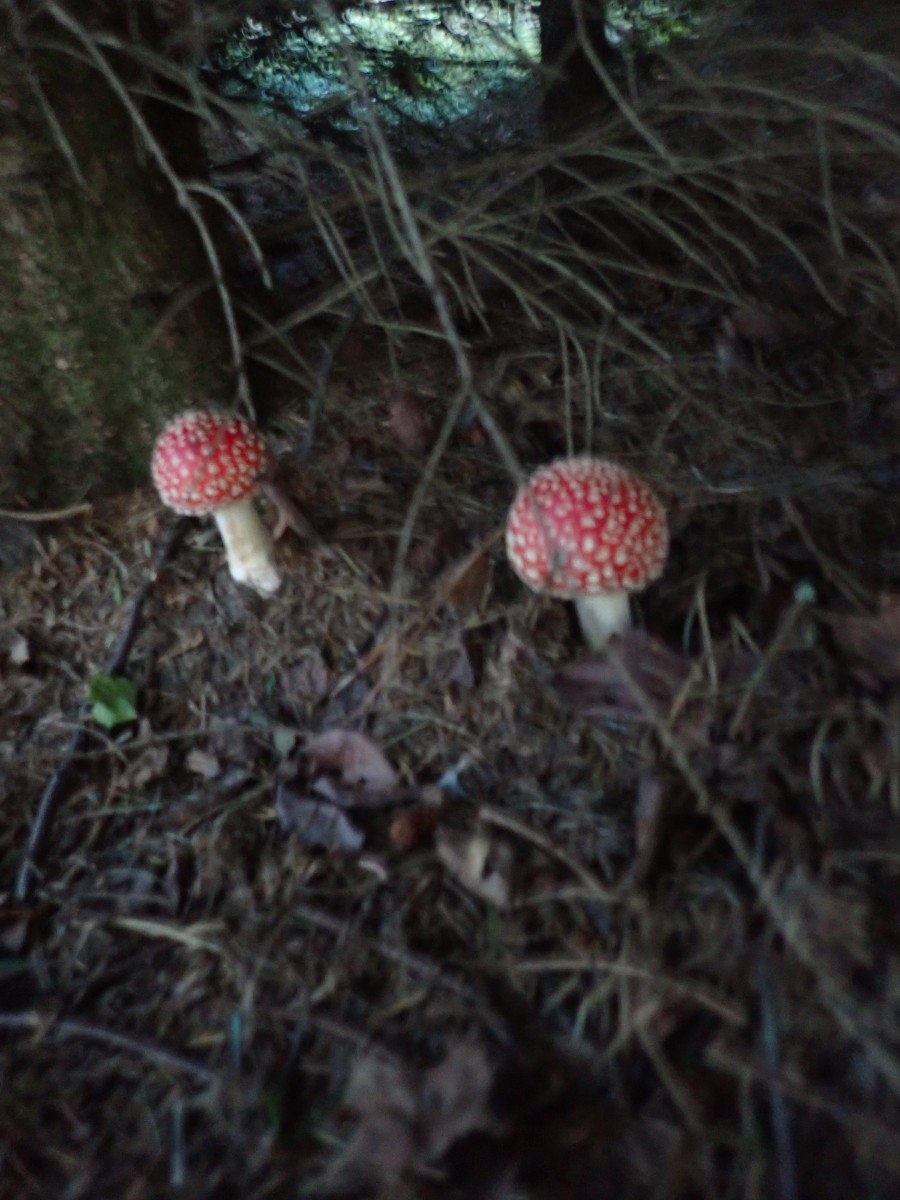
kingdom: Fungi
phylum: Basidiomycota
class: Agaricomycetes
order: Agaricales
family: Amanitaceae
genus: Amanita
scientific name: Amanita muscaria
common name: rød fluesvamp
